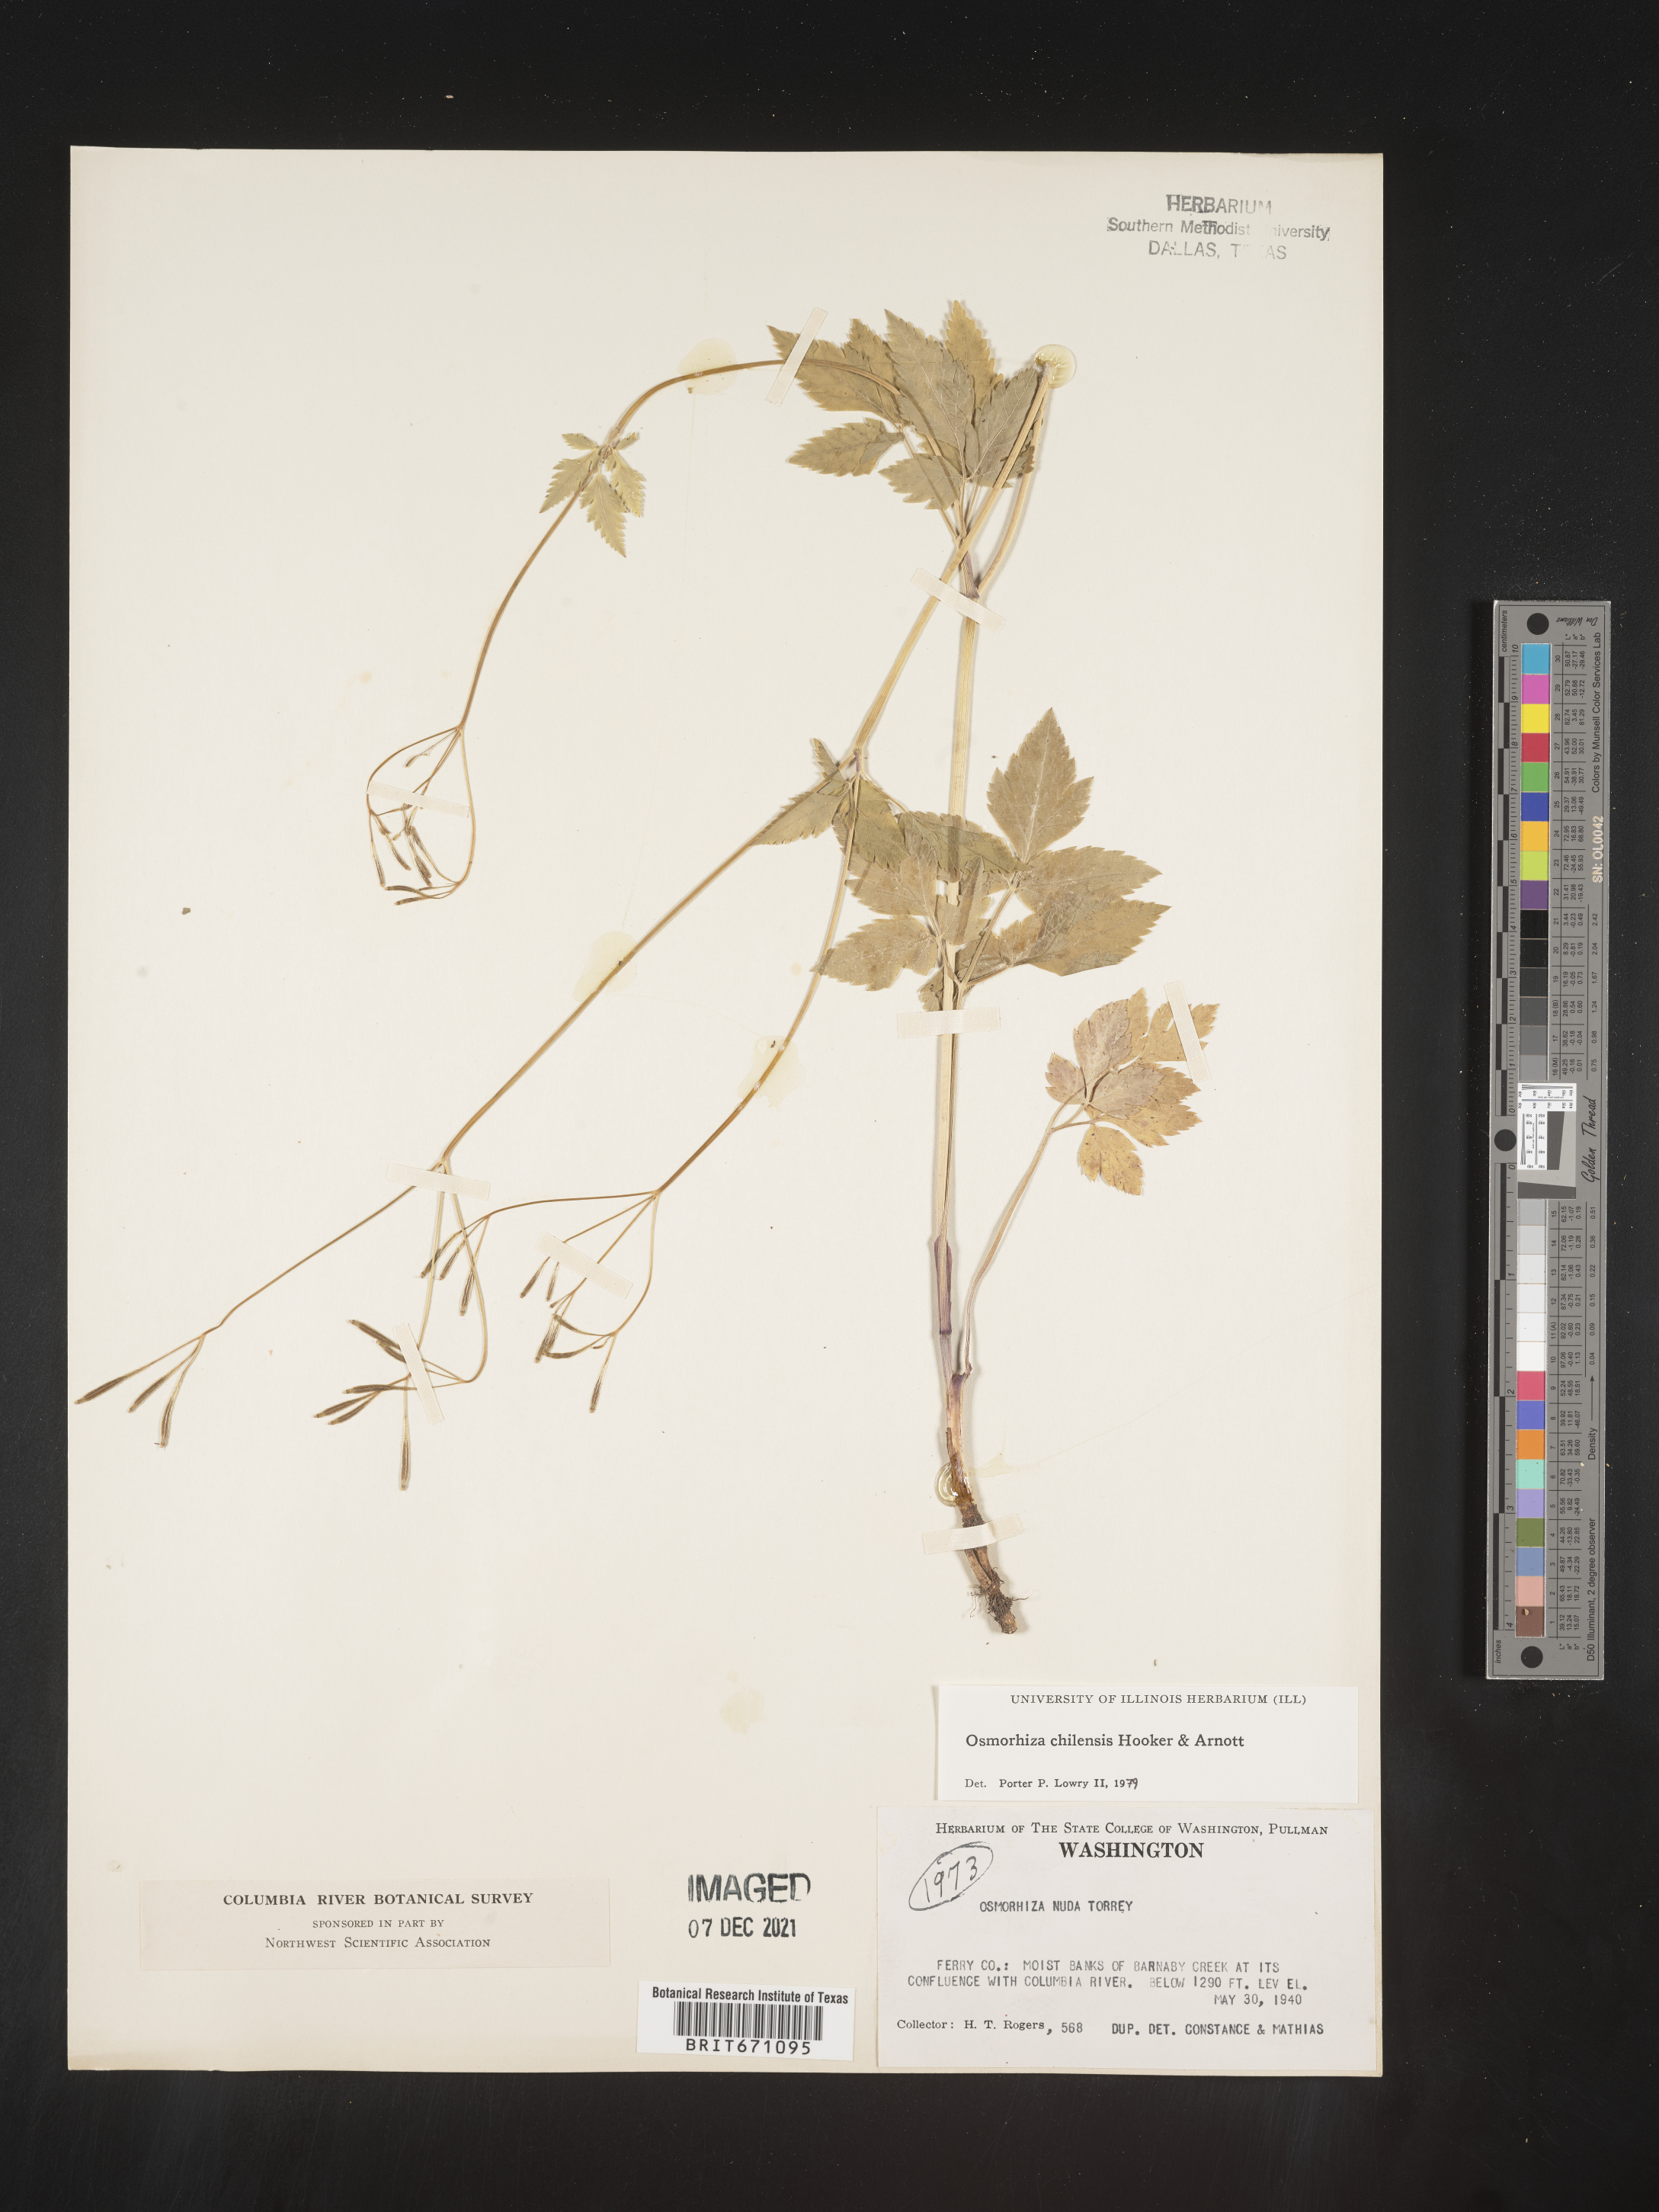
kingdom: Plantae
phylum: Tracheophyta
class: Magnoliopsida
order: Apiales
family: Apiaceae
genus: Osmorhiza
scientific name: Osmorhiza berteroi
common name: Mountain sweet cicely
